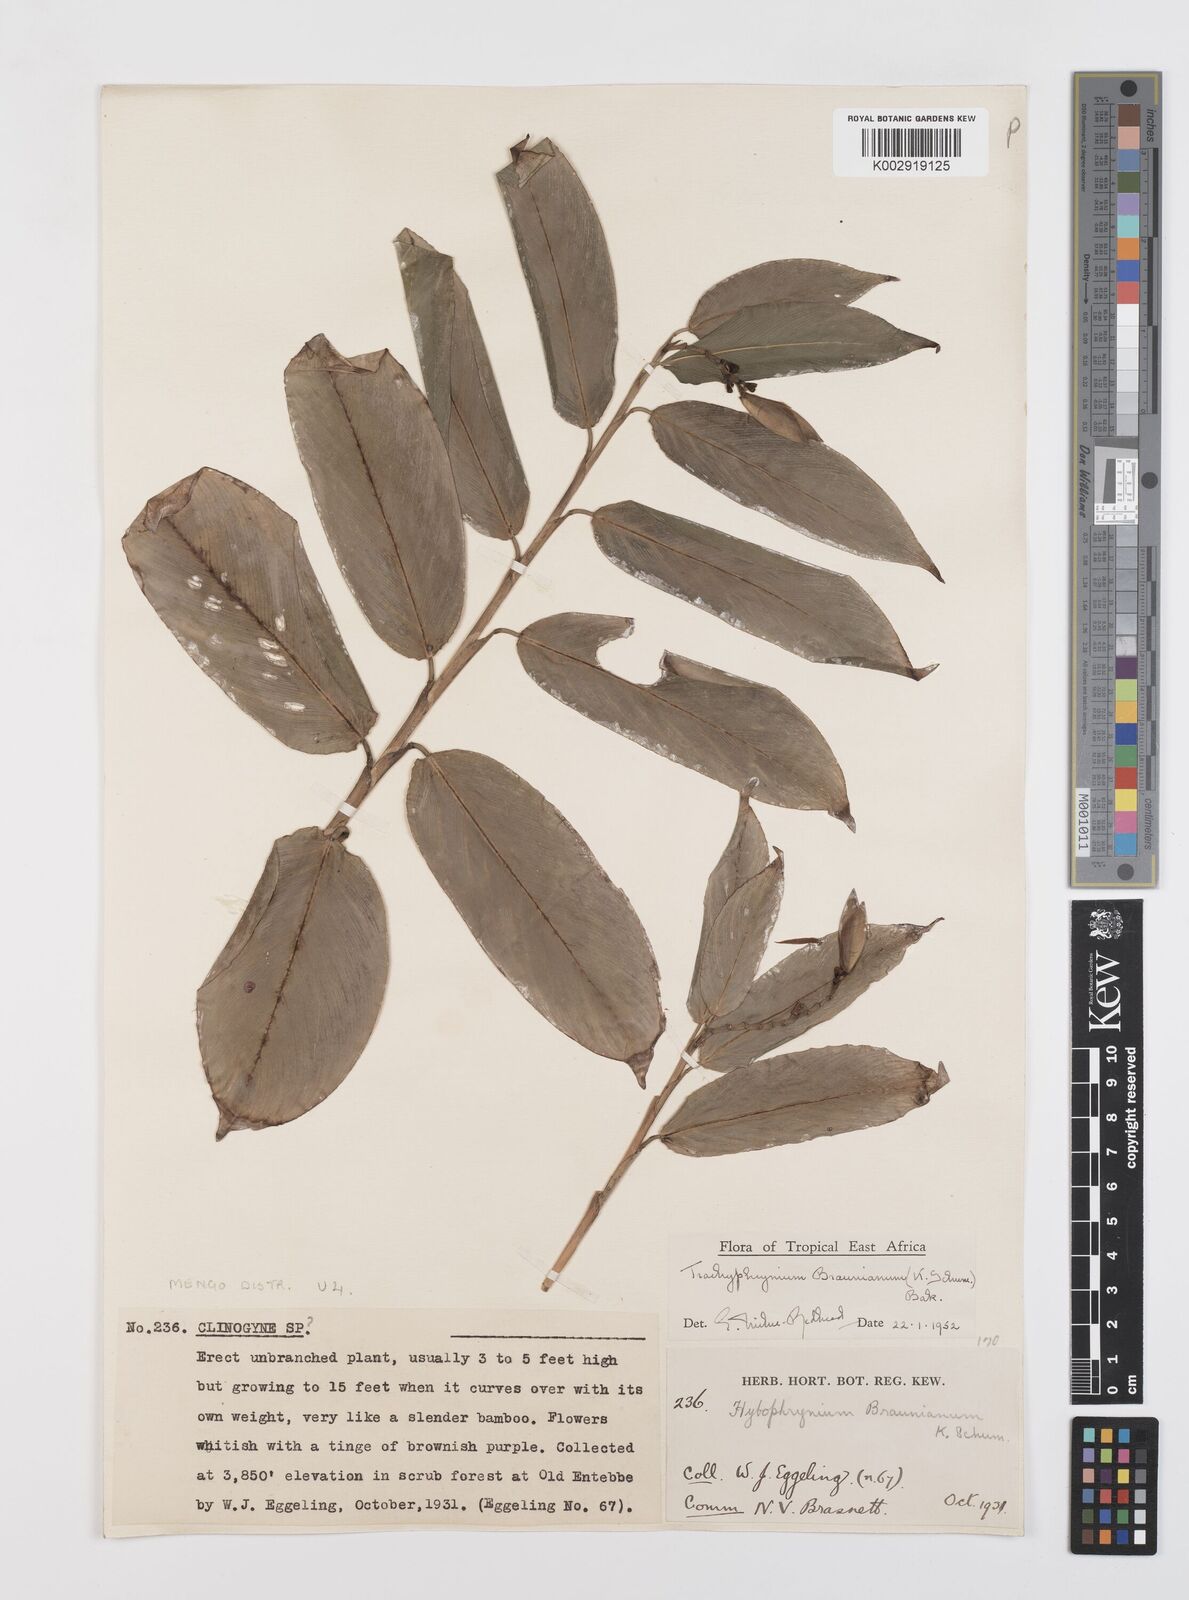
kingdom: Plantae
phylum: Tracheophyta
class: Liliopsida
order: Zingiberales
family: Marantaceae
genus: Trachyphrynium
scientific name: Trachyphrynium braunianum
